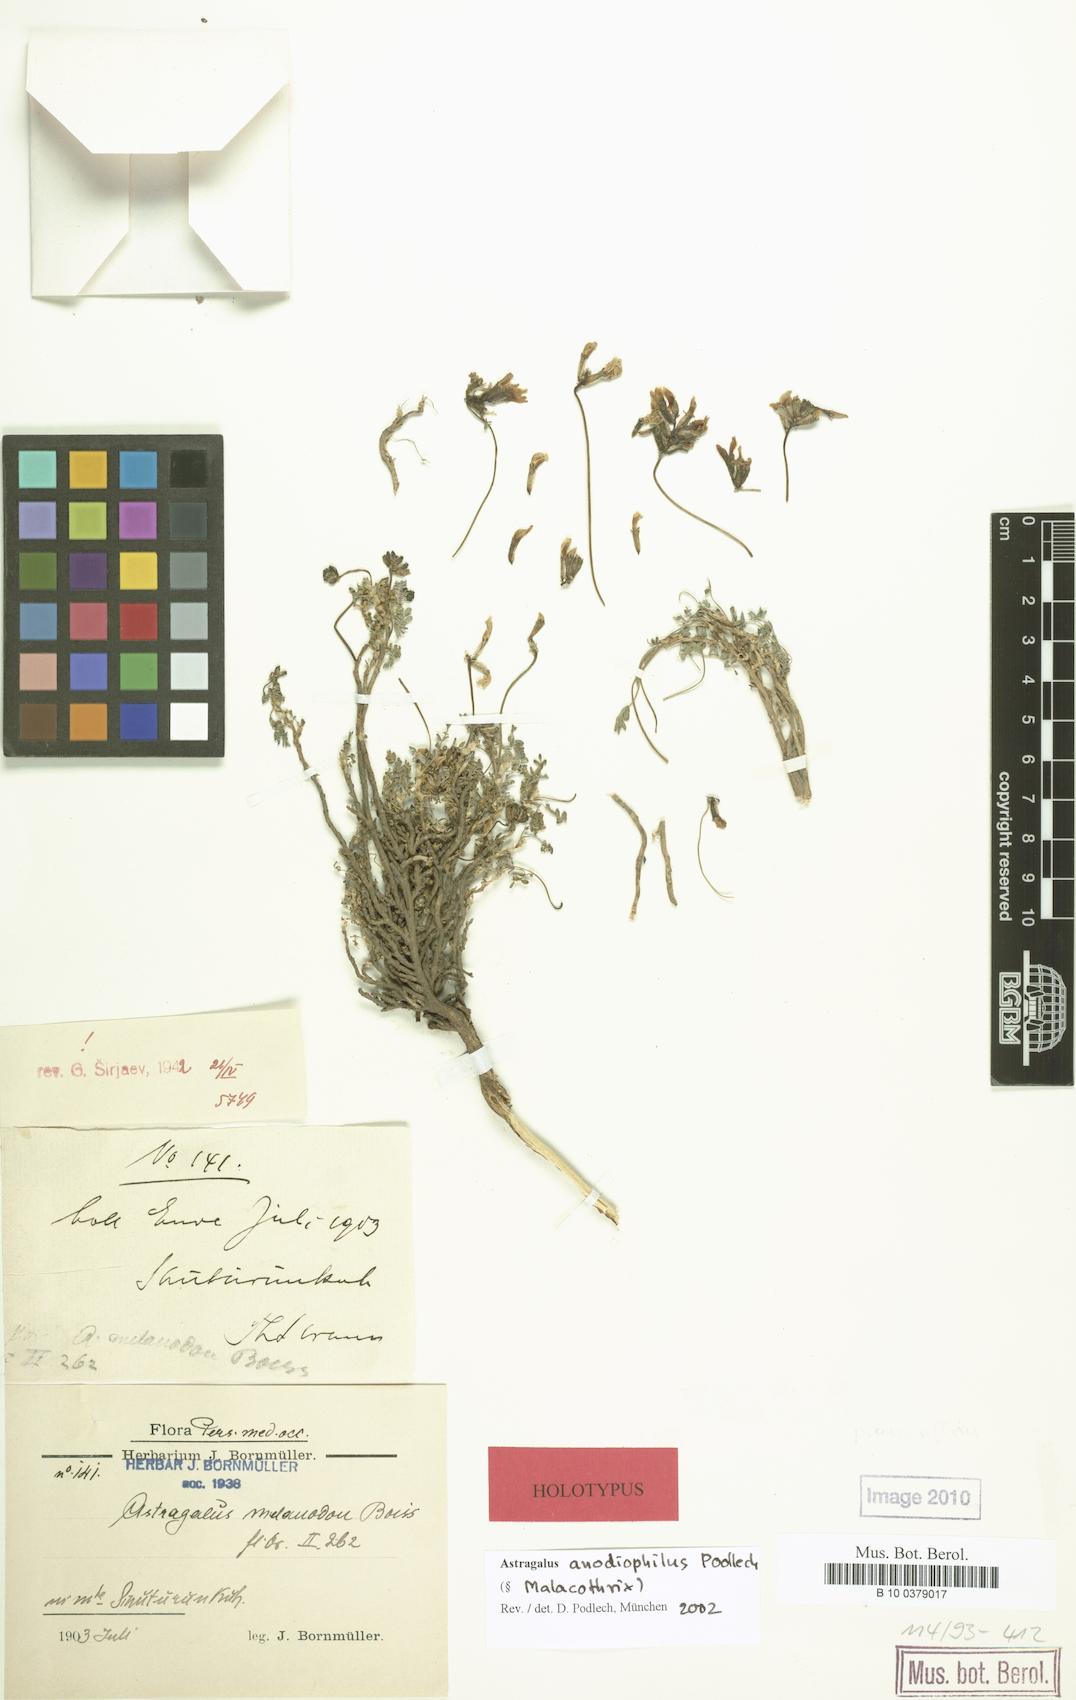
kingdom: Plantae
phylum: Tracheophyta
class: Magnoliopsida
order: Fabales
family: Fabaceae
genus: Astragalus
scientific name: Astragalus anodiophilus
